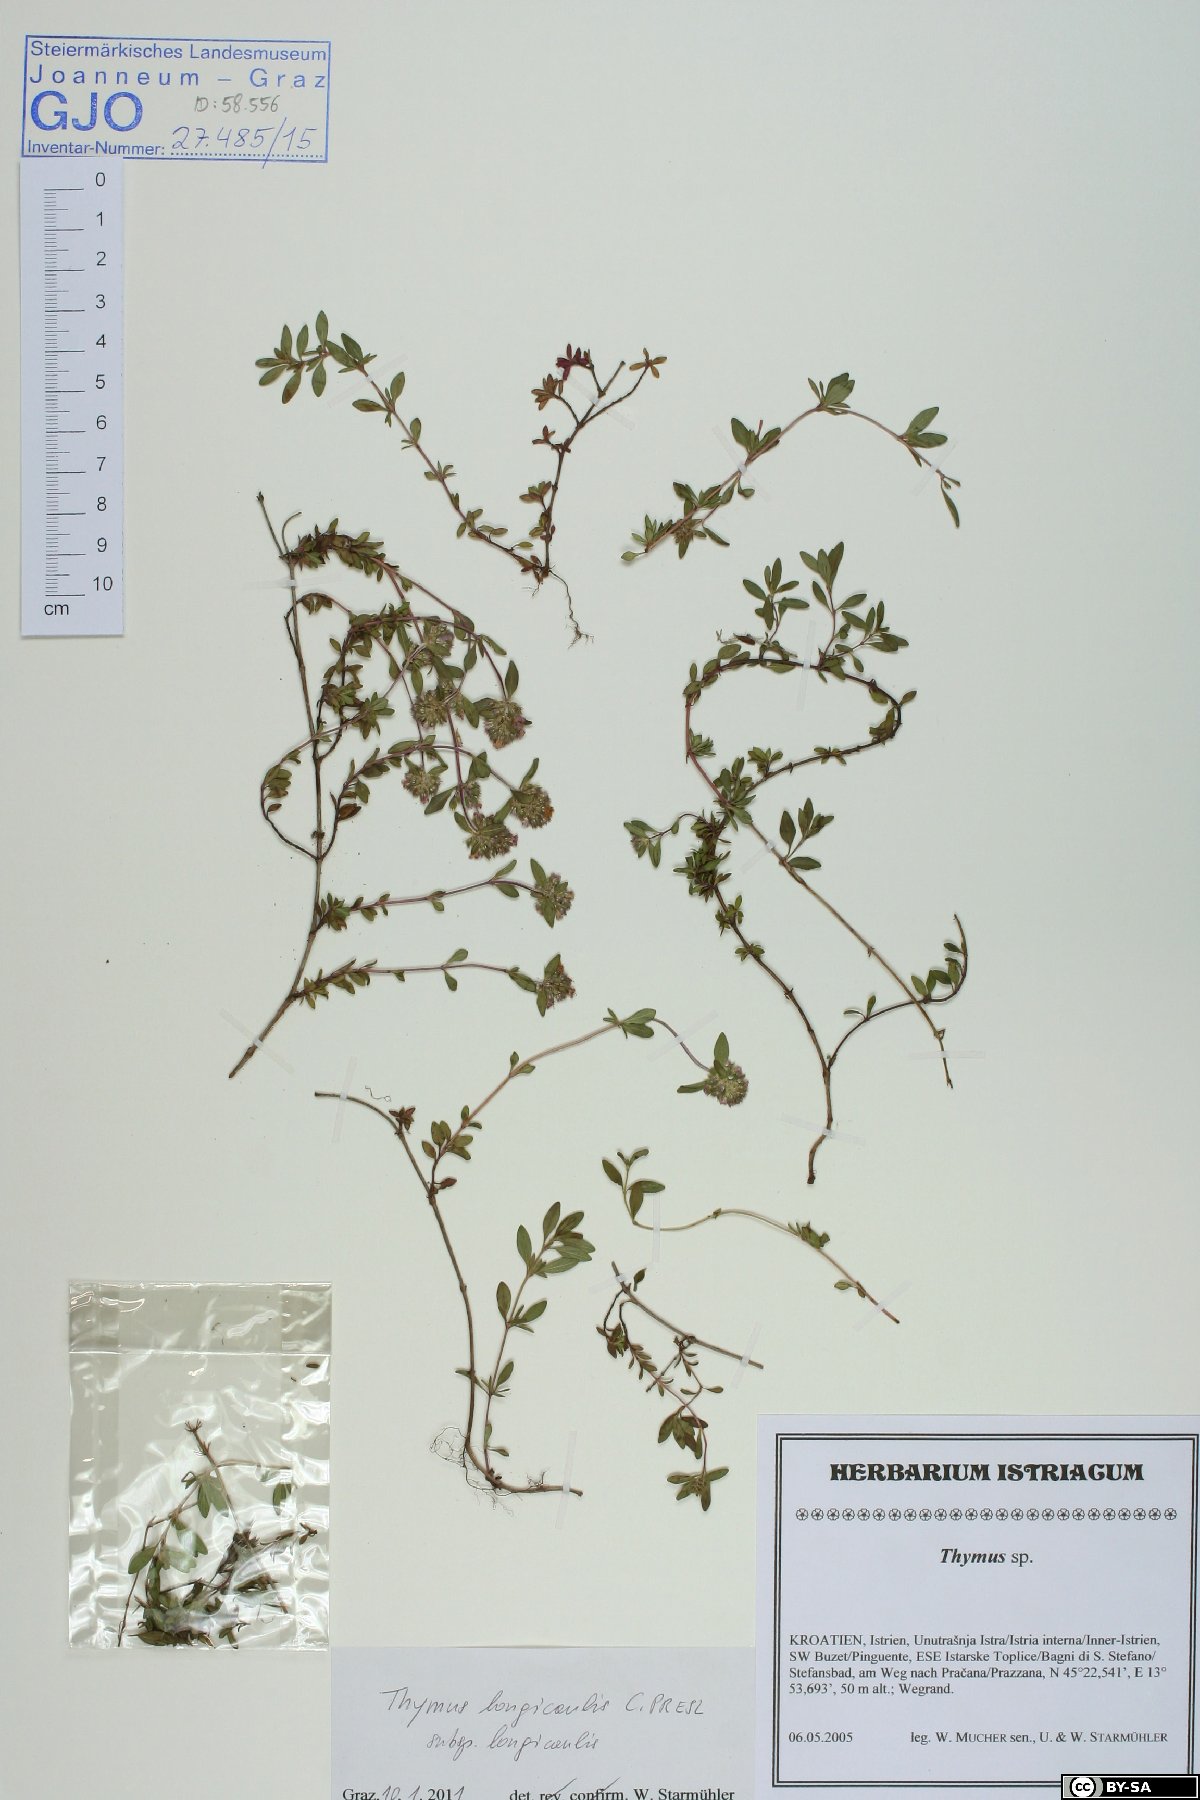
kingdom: Plantae
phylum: Tracheophyta
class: Magnoliopsida
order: Lamiales
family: Lamiaceae
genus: Thymus
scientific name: Thymus longicaulis
